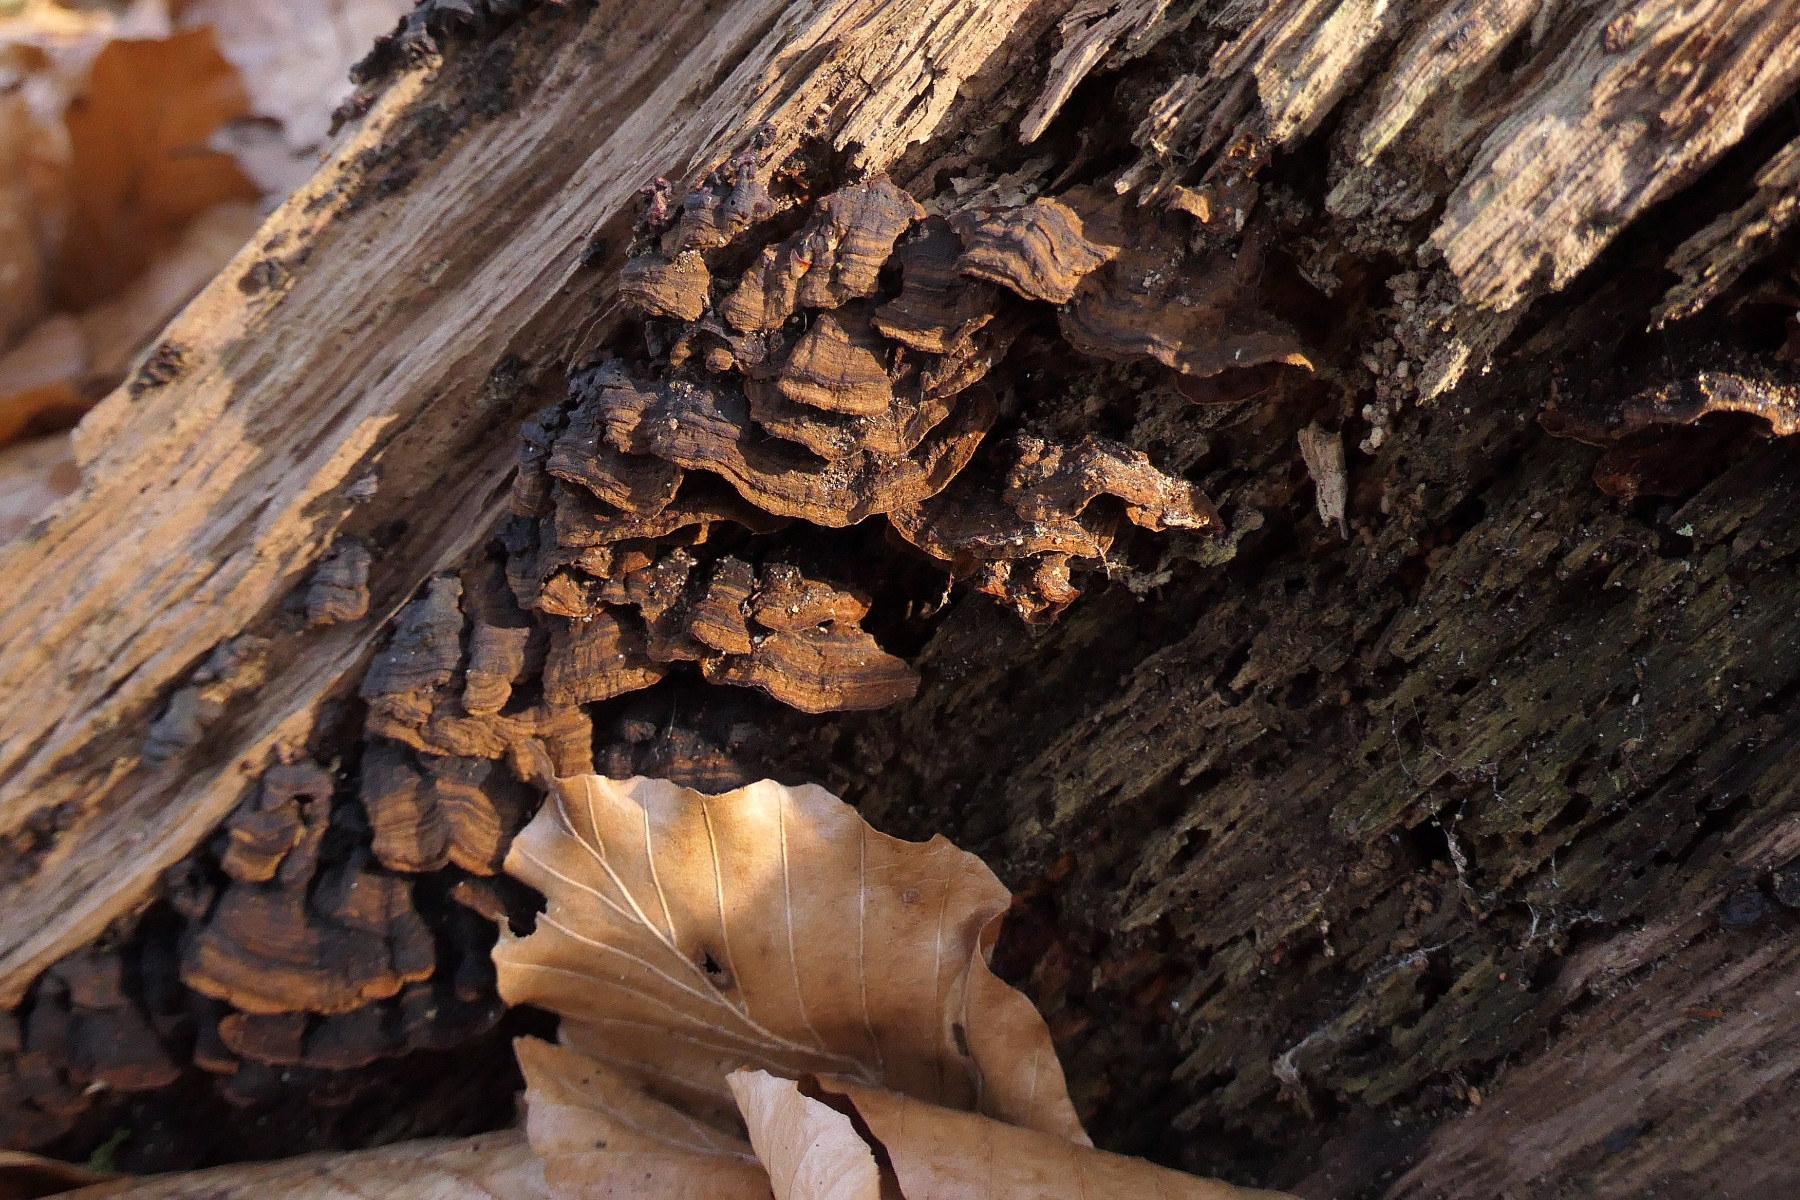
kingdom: Fungi
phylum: Basidiomycota
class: Agaricomycetes
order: Hymenochaetales
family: Hymenochaetaceae
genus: Hymenochaete
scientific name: Hymenochaete rubiginosa
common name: stiv ruslædersvamp
